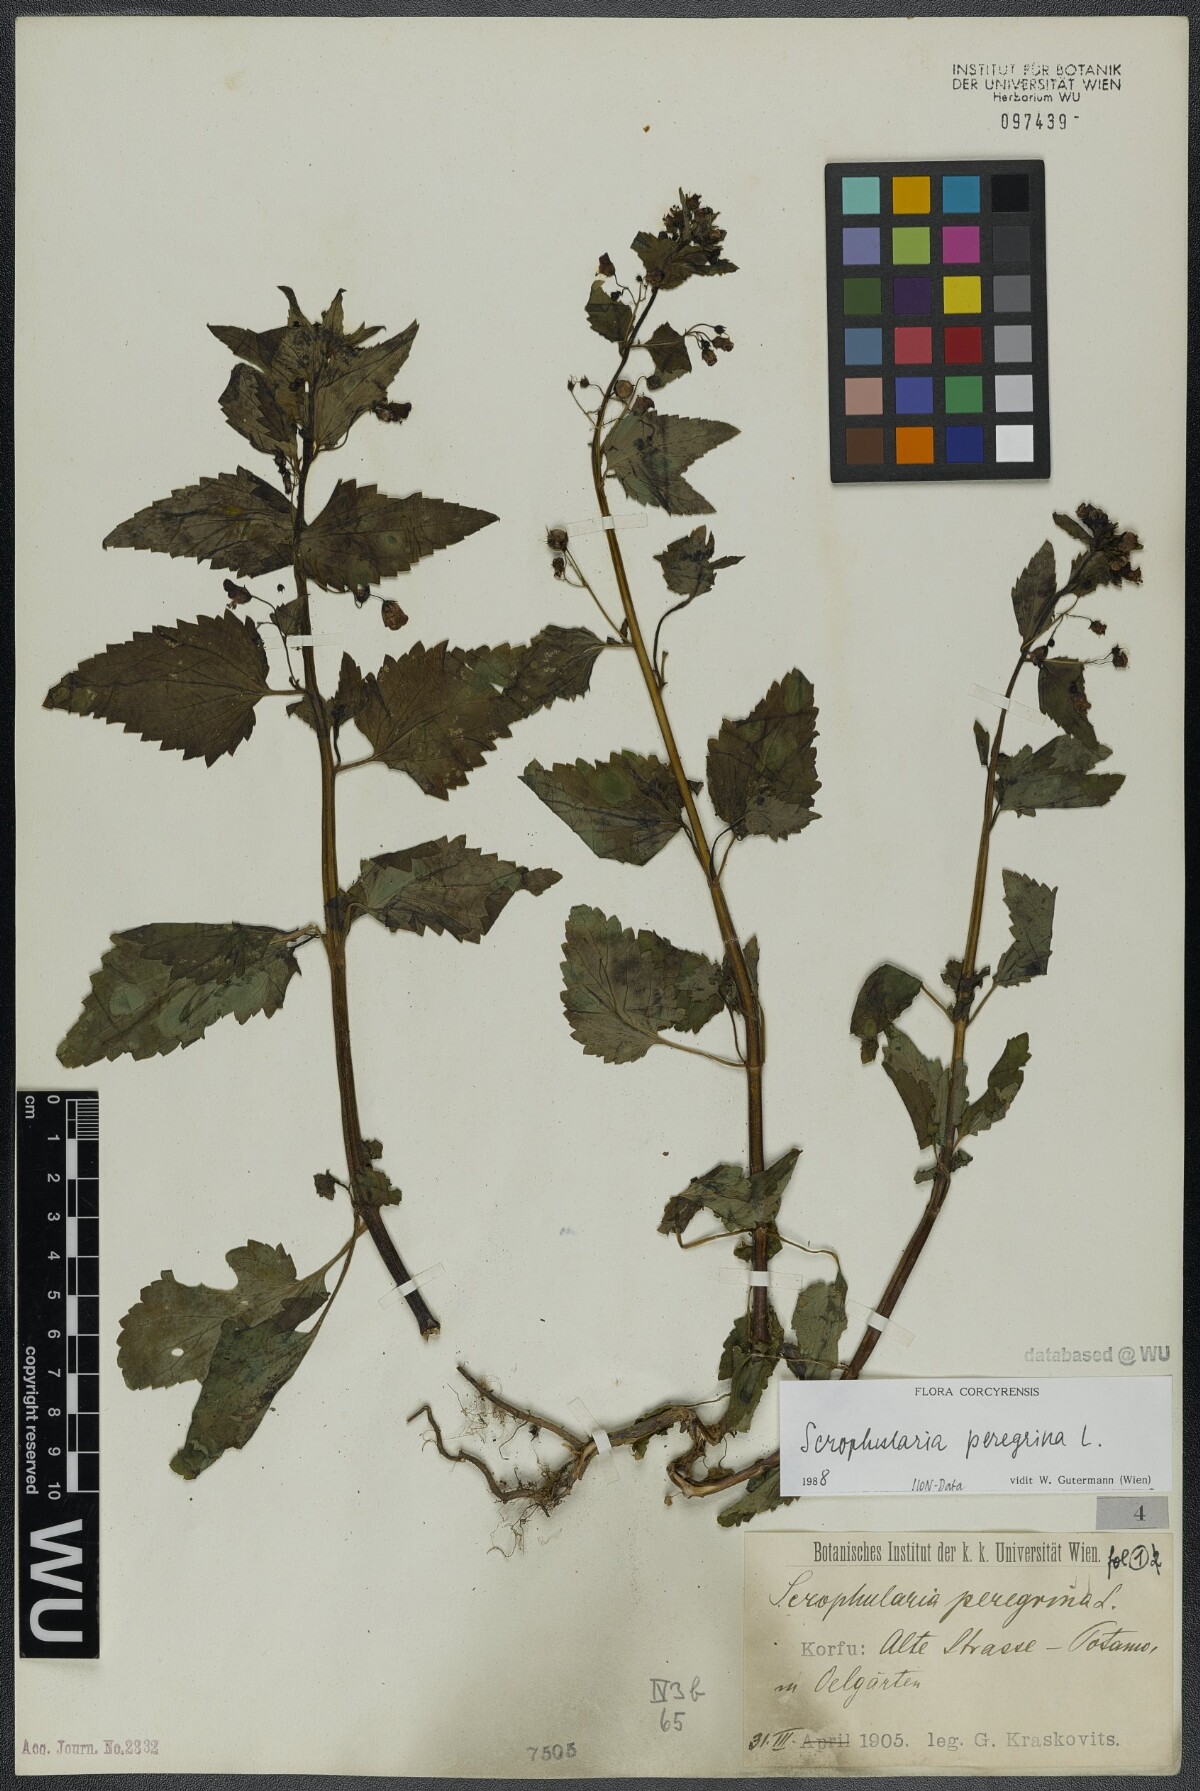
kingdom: Plantae
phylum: Tracheophyta
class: Magnoliopsida
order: Lamiales
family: Scrophulariaceae
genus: Scrophularia
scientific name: Scrophularia peregrina
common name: Mediterranean figwort
